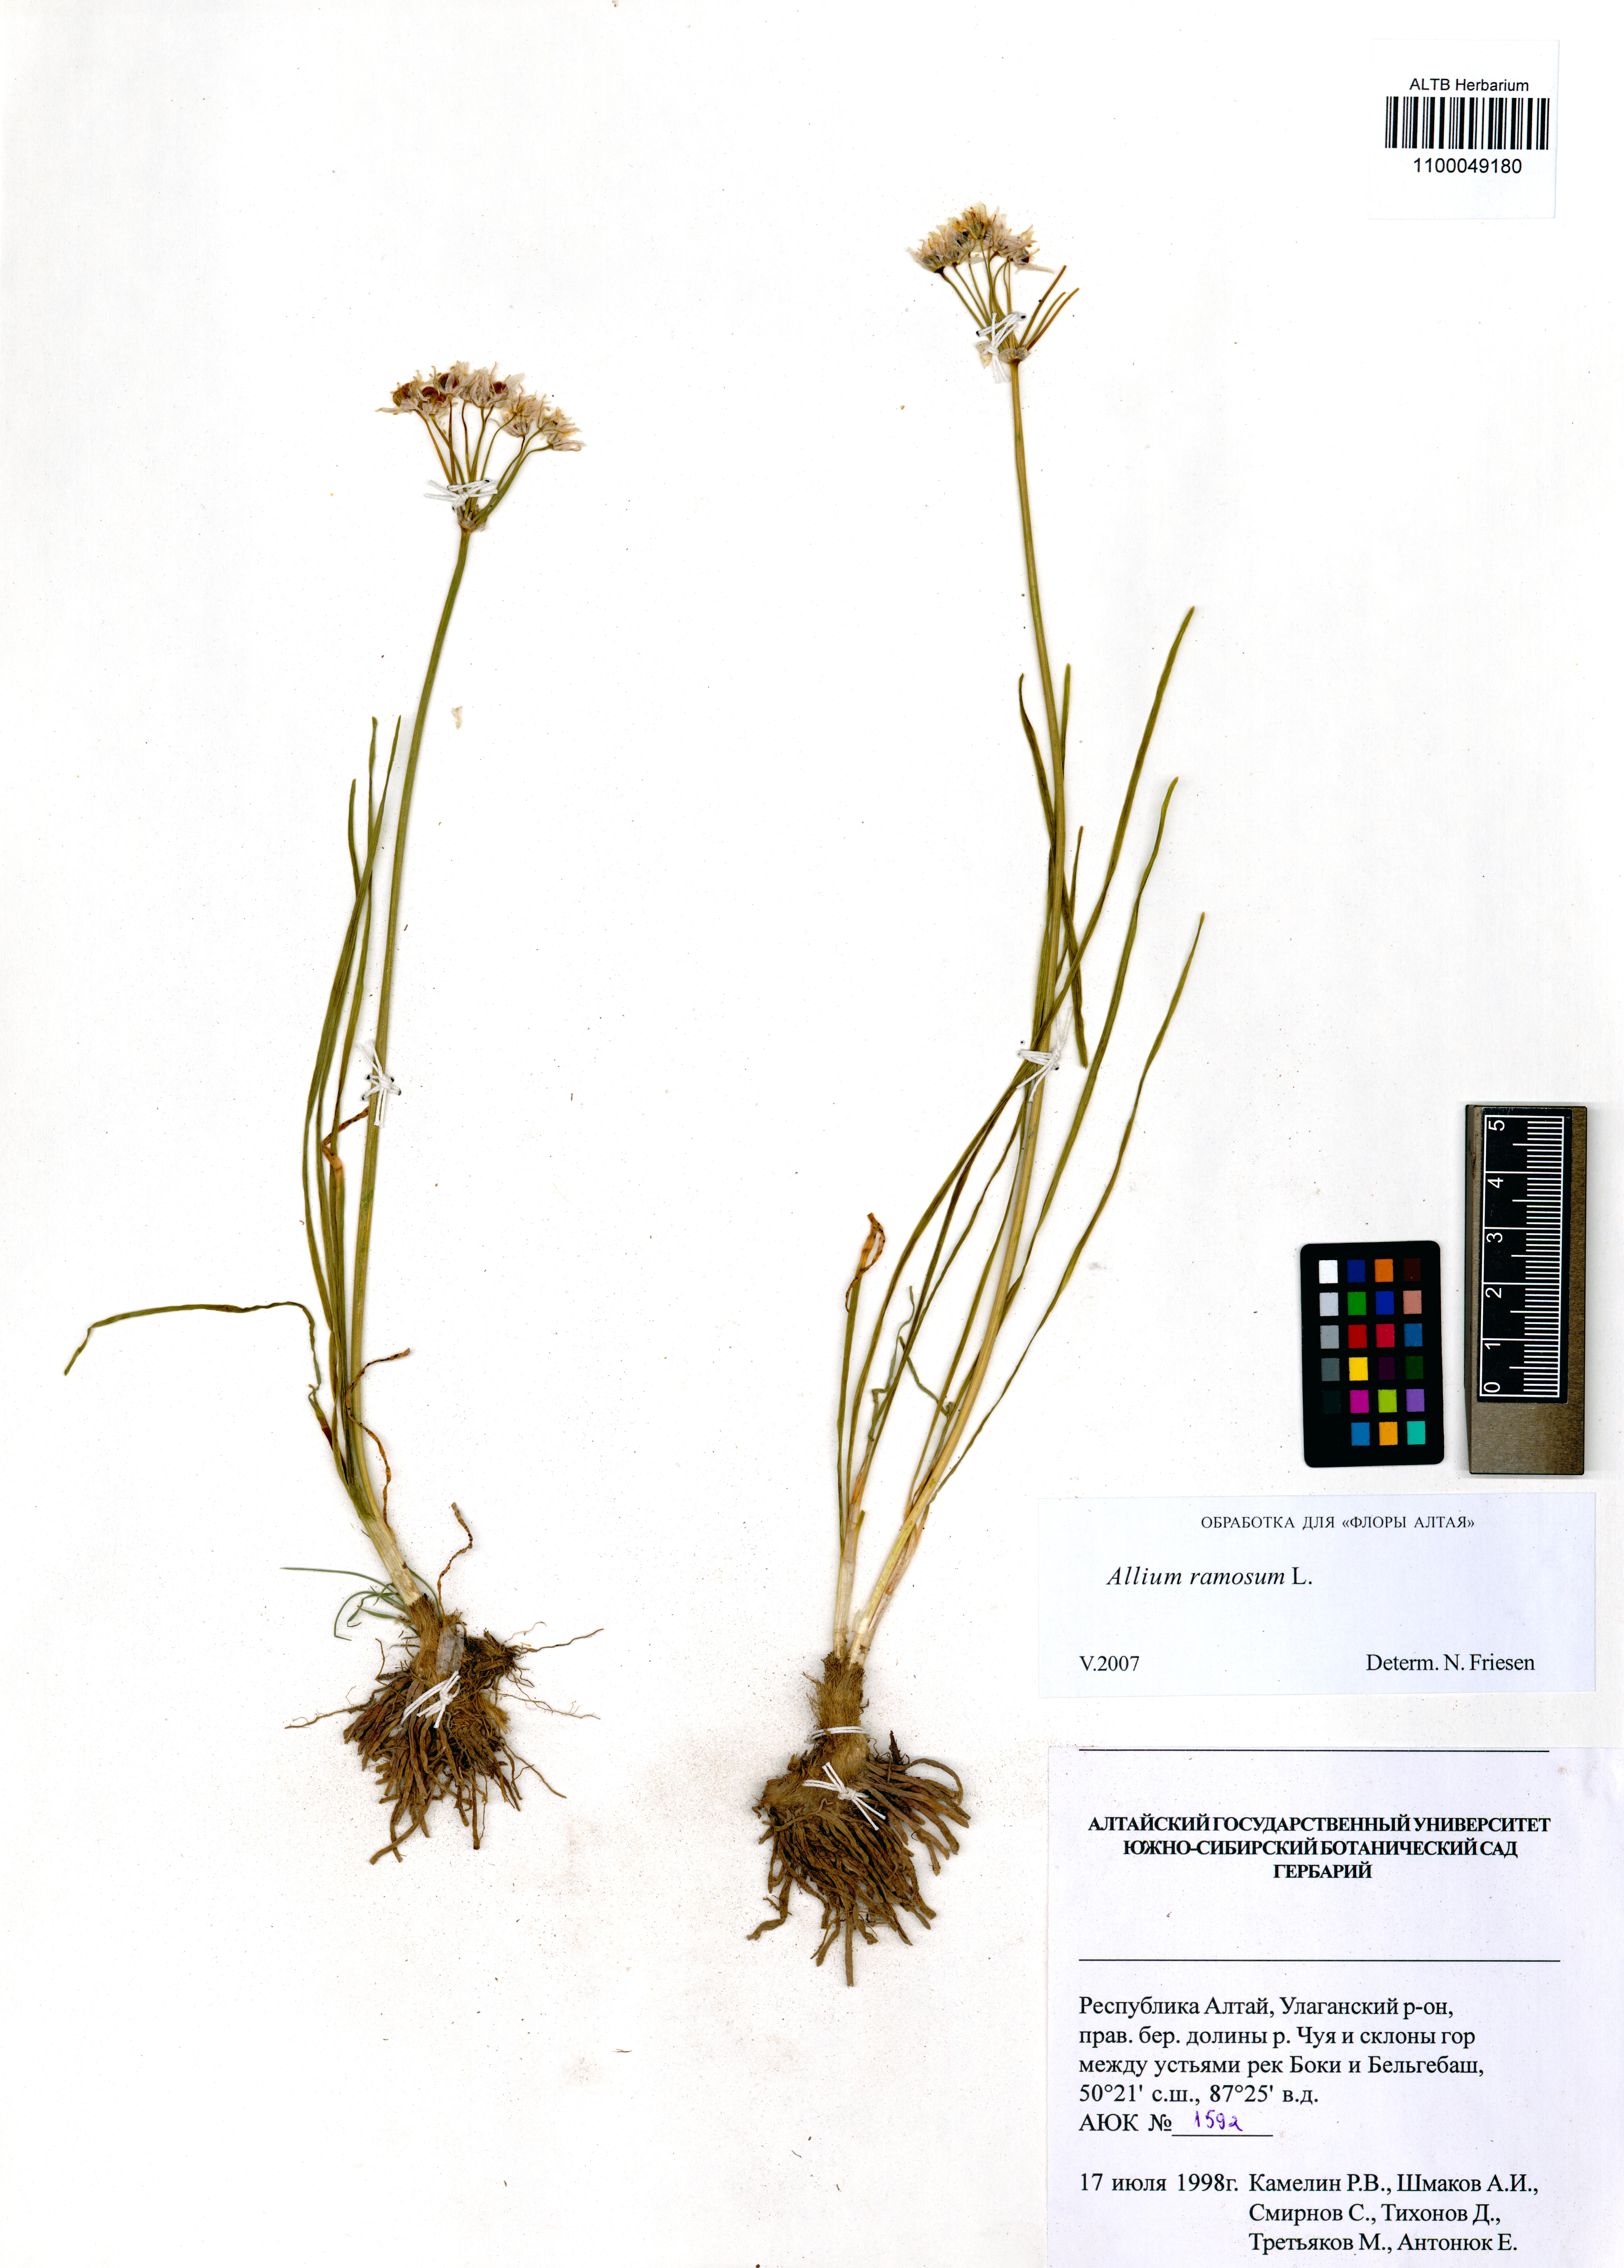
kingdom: Plantae
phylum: Tracheophyta
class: Liliopsida
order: Asparagales
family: Amaryllidaceae
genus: Allium
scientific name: Allium ramosum
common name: Fragrant garlic
